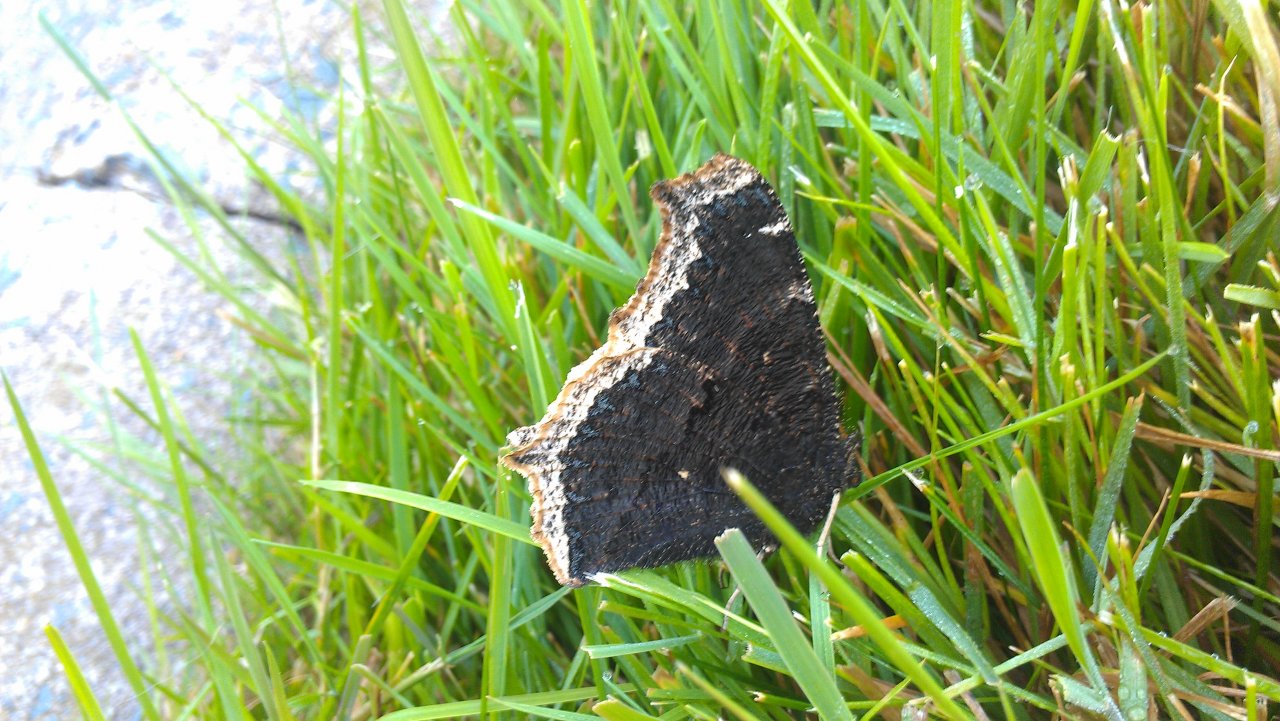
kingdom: Animalia
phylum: Arthropoda
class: Insecta
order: Lepidoptera
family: Nymphalidae
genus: Nymphalis
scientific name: Nymphalis antiopa
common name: Mourning Cloak
